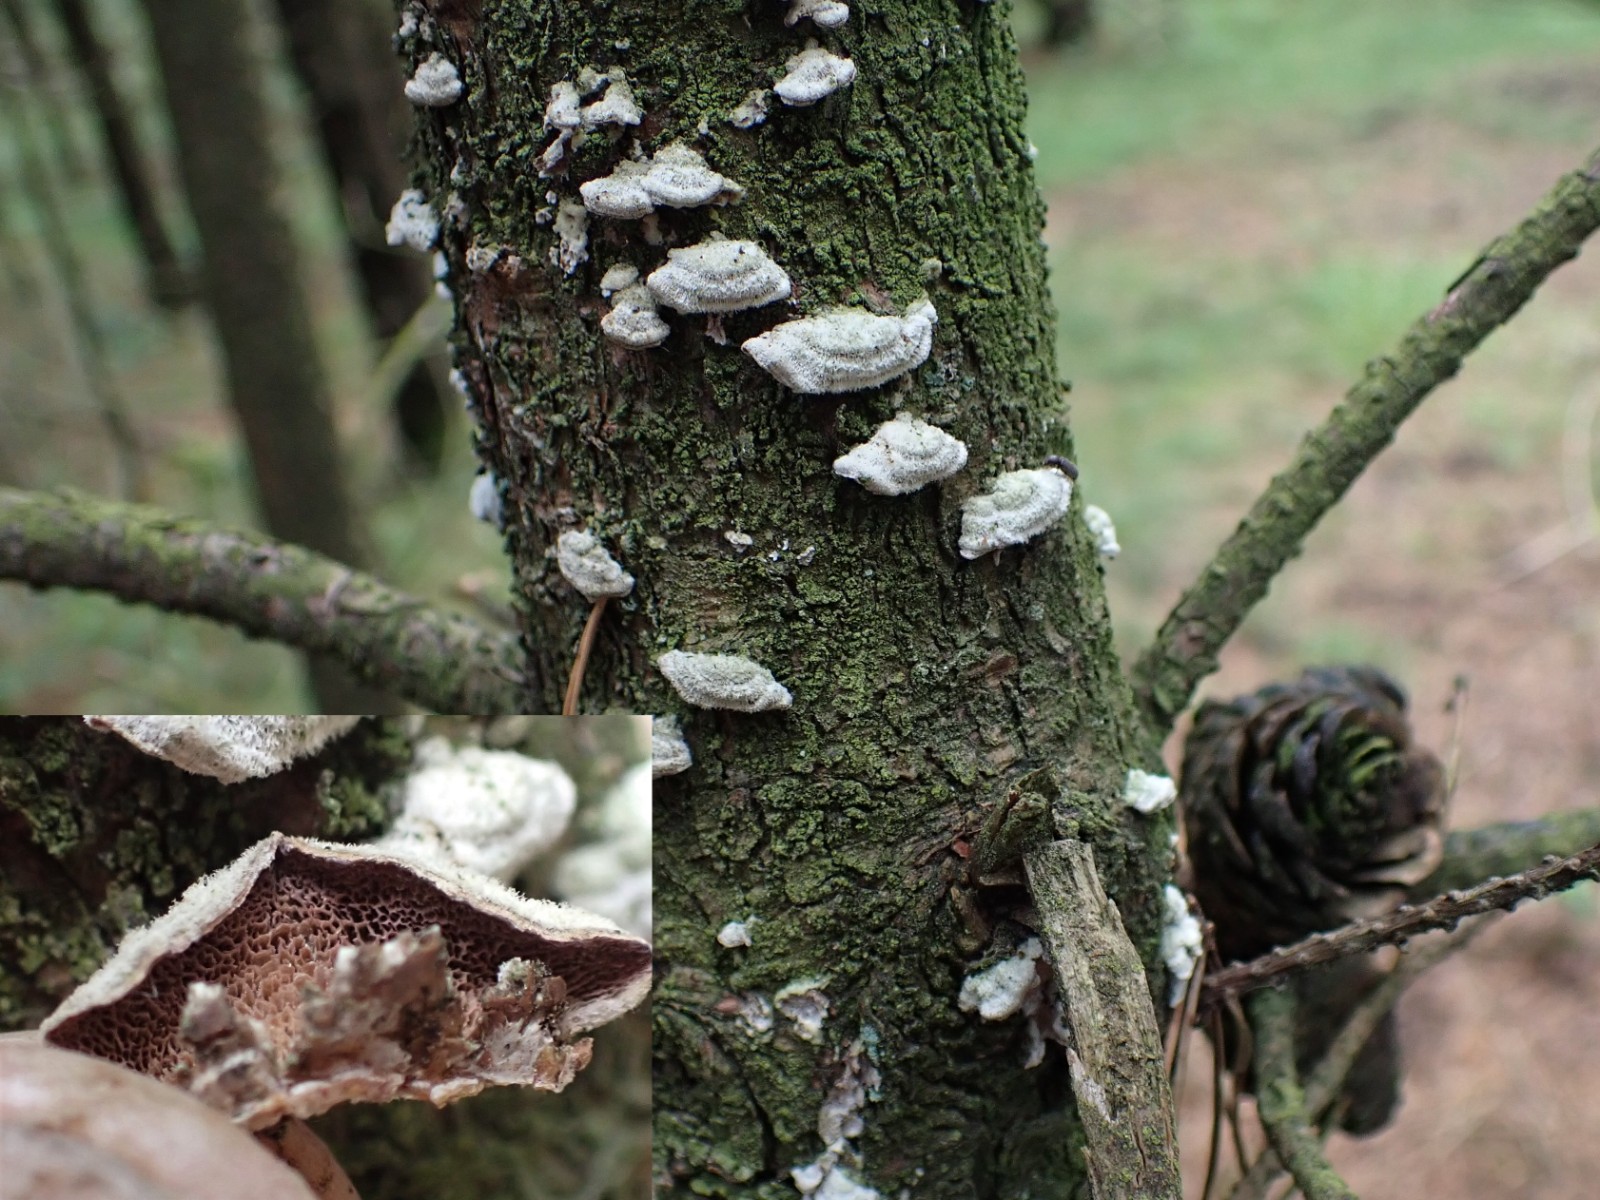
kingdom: Fungi
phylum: Basidiomycota
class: Agaricomycetes
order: Hymenochaetales
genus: Trichaptum
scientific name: Trichaptum abietinum
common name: almindelig violporesvamp
